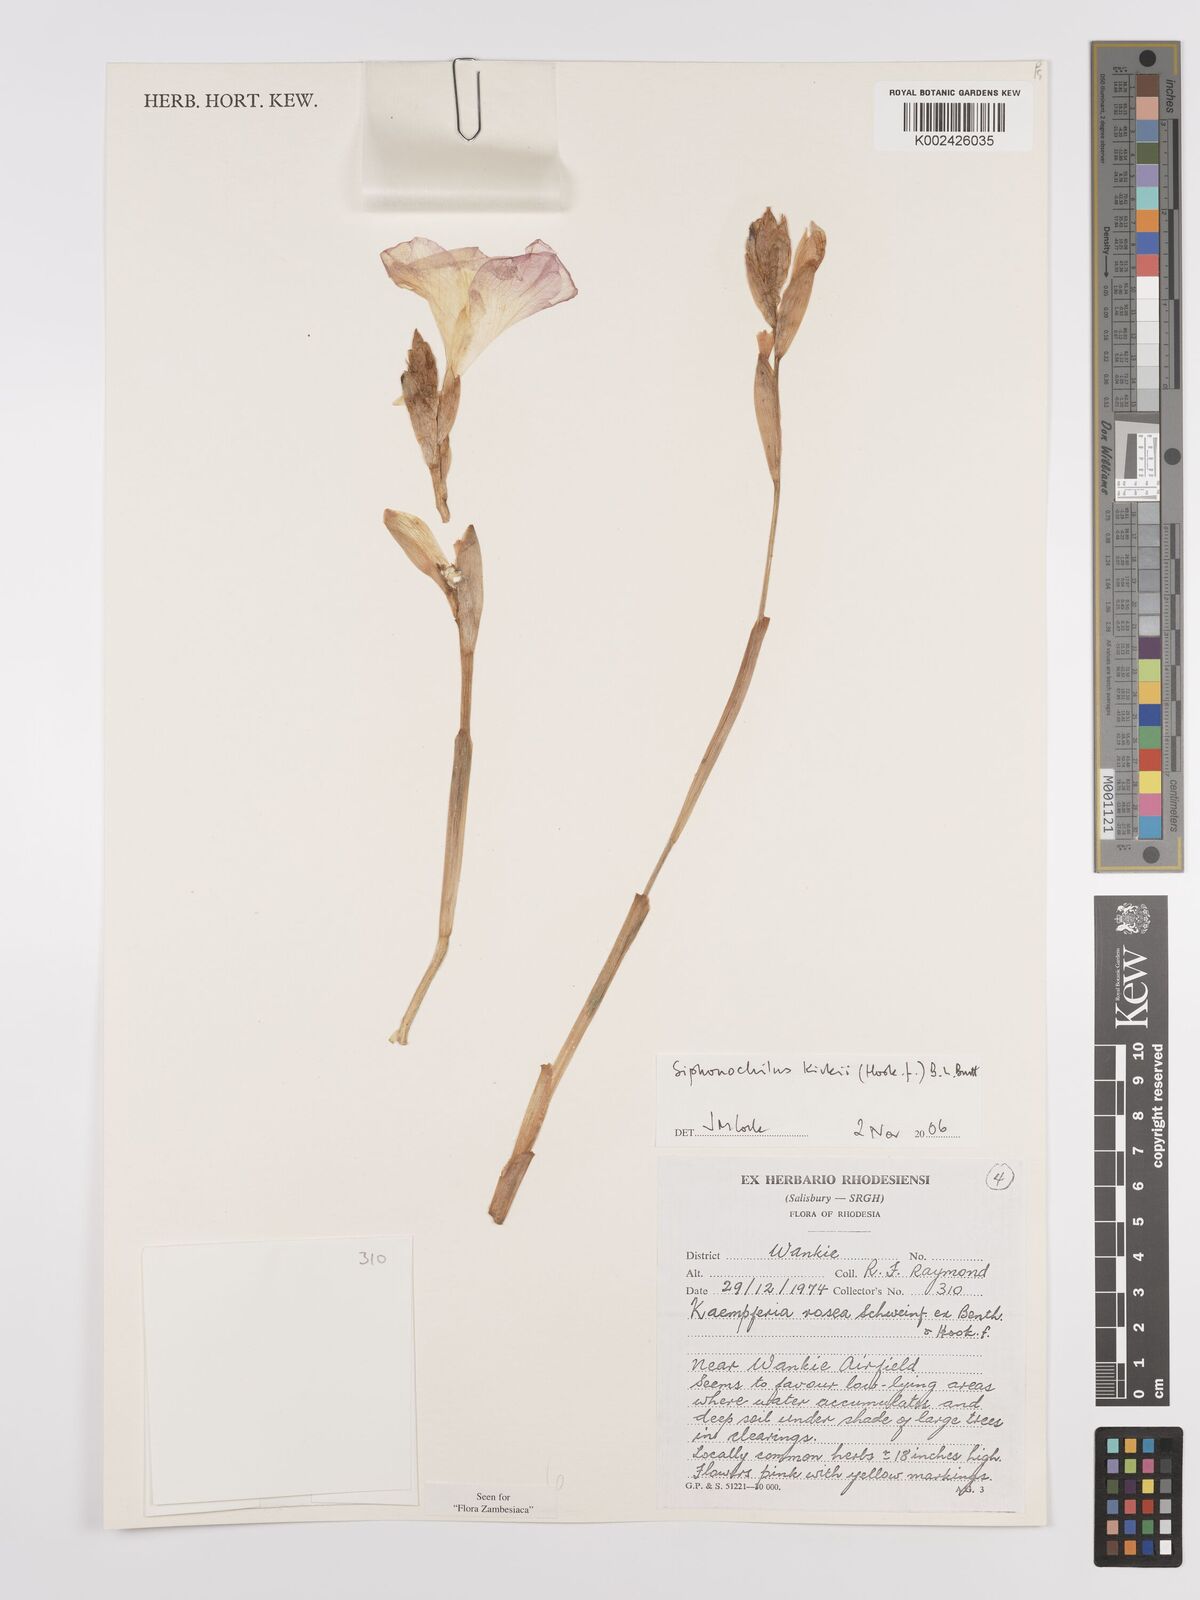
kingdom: Plantae
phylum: Tracheophyta
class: Liliopsida
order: Zingiberales
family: Zingiberaceae
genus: Siphonochilus
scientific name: Siphonochilus kirkii
